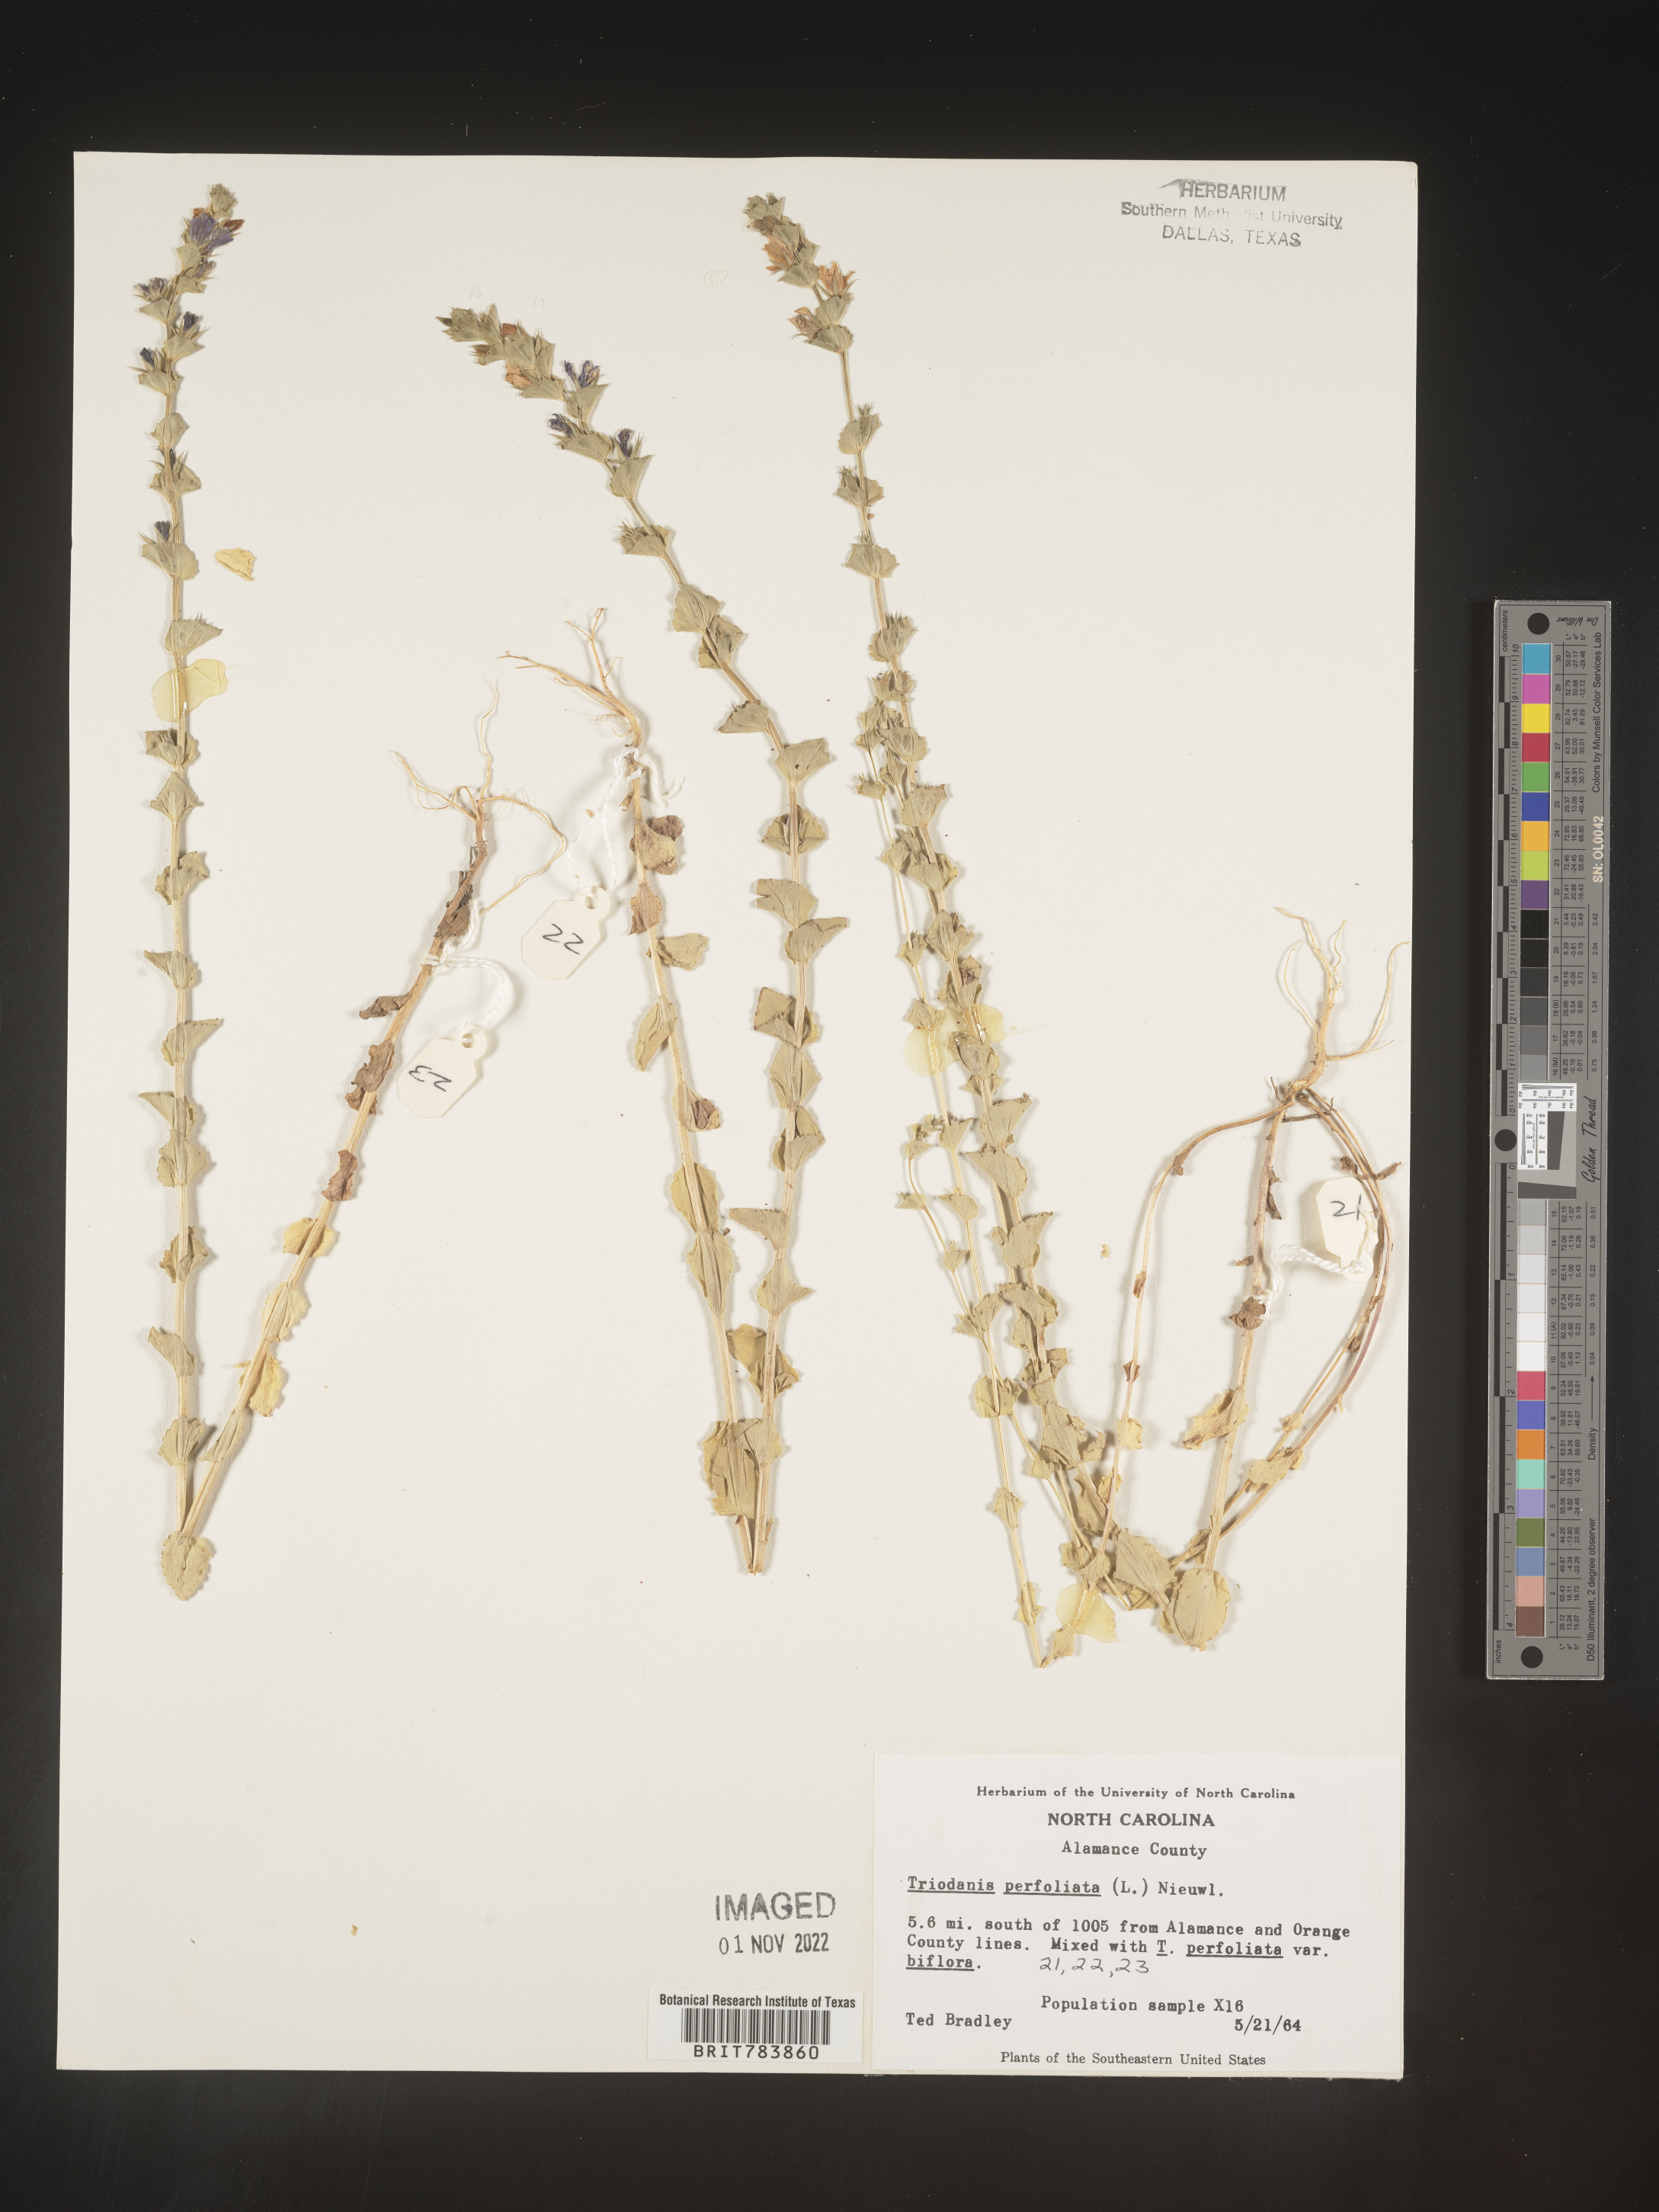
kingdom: Plantae
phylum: Tracheophyta
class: Magnoliopsida
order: Asterales
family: Campanulaceae
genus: Triodanis
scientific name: Triodanis perfoliata
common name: Clasping venus' looking-glass
